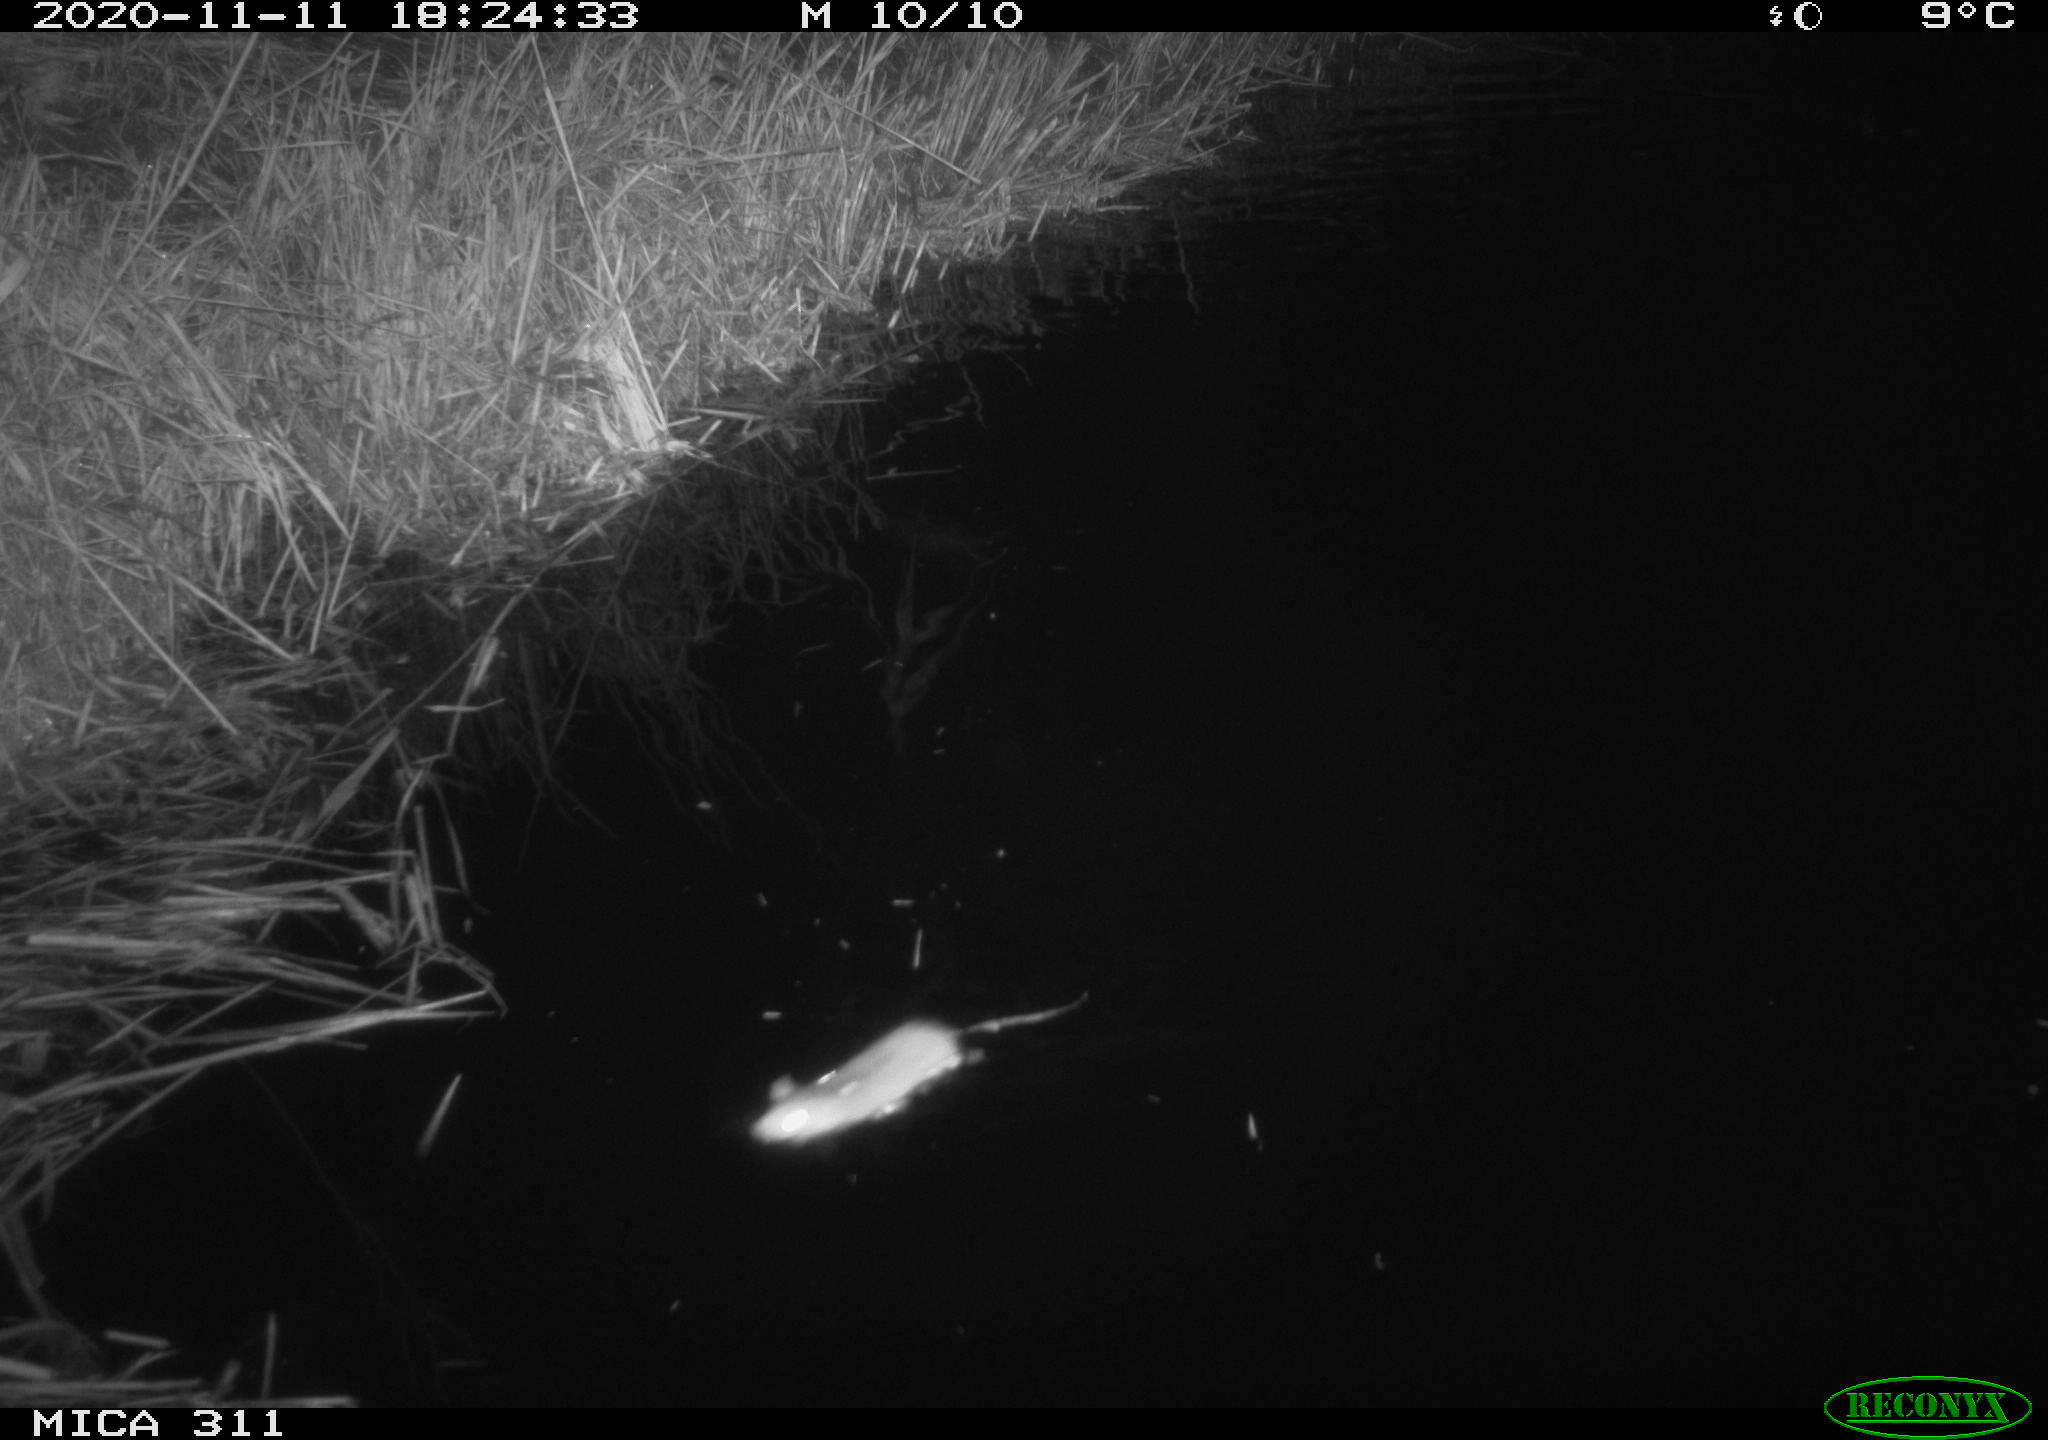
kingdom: Animalia
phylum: Chordata
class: Mammalia
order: Rodentia
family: Muridae
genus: Rattus
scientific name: Rattus norvegicus
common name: Brown rat
